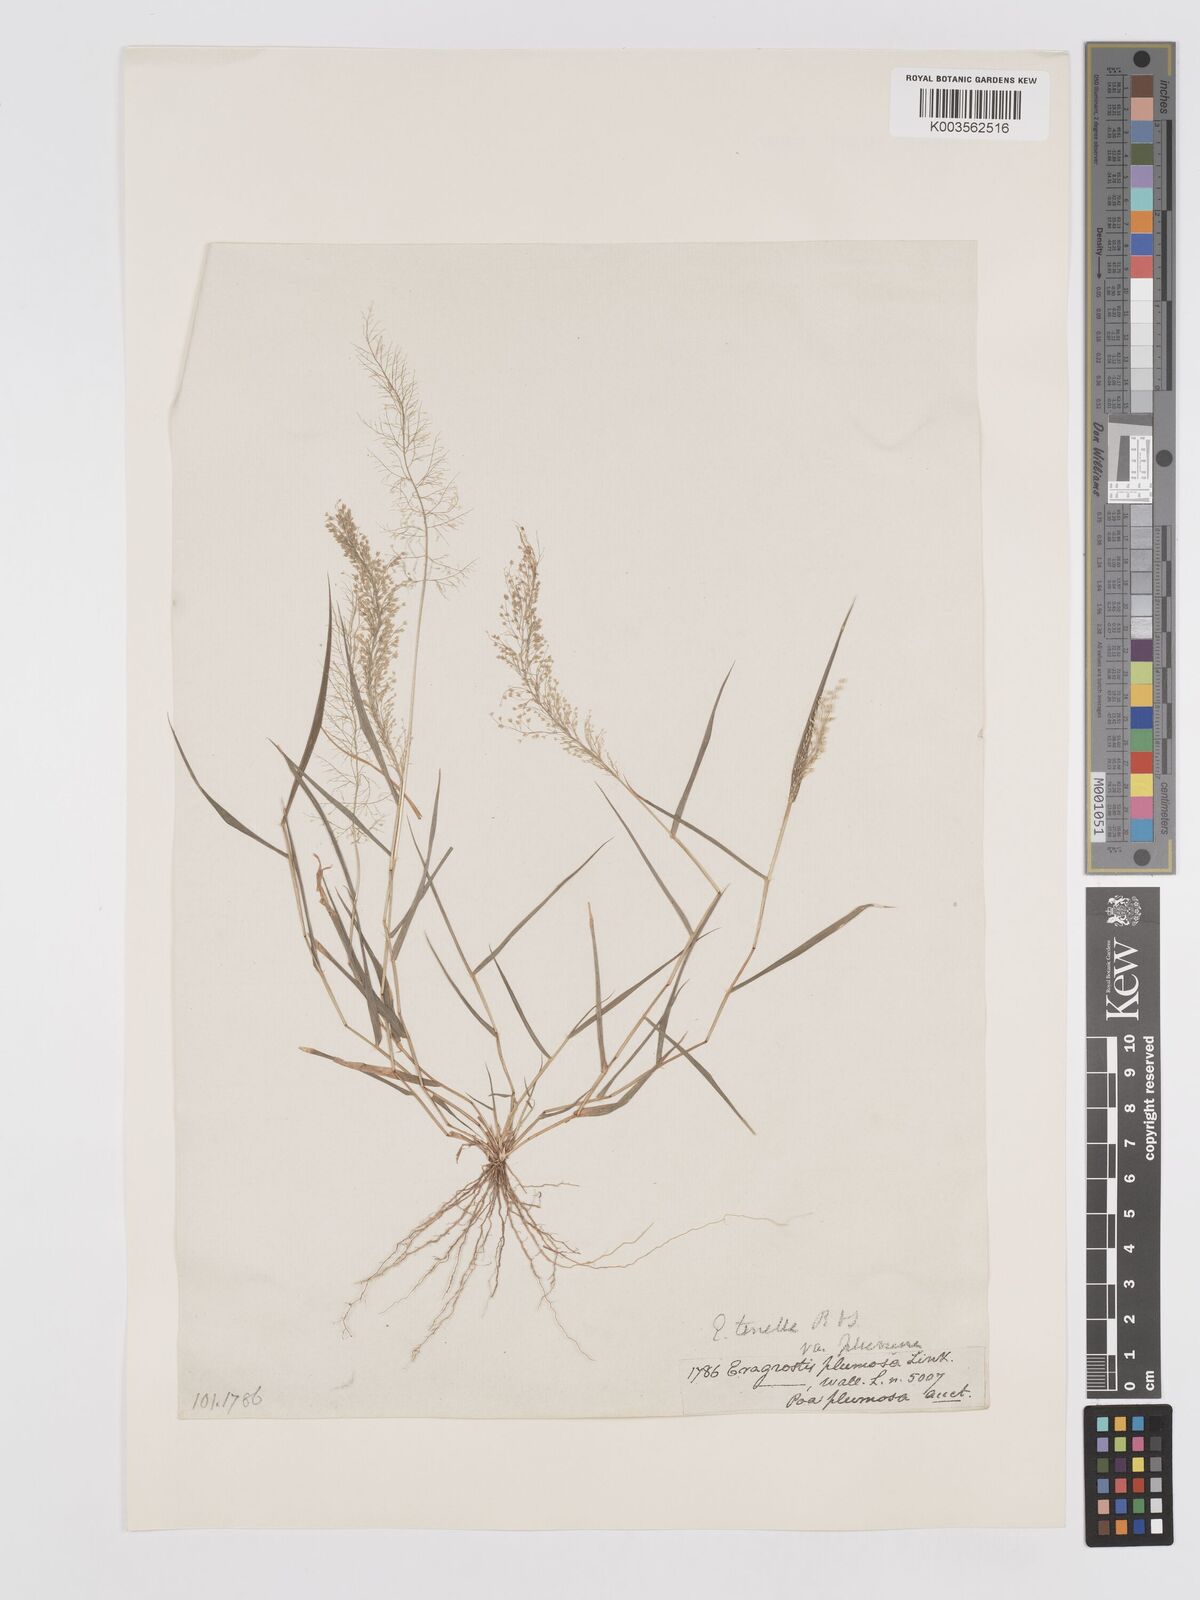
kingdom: Plantae
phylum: Tracheophyta
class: Liliopsida
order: Poales
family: Poaceae
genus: Eragrostis
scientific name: Eragrostis tenella
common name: Japanese lovegrass
